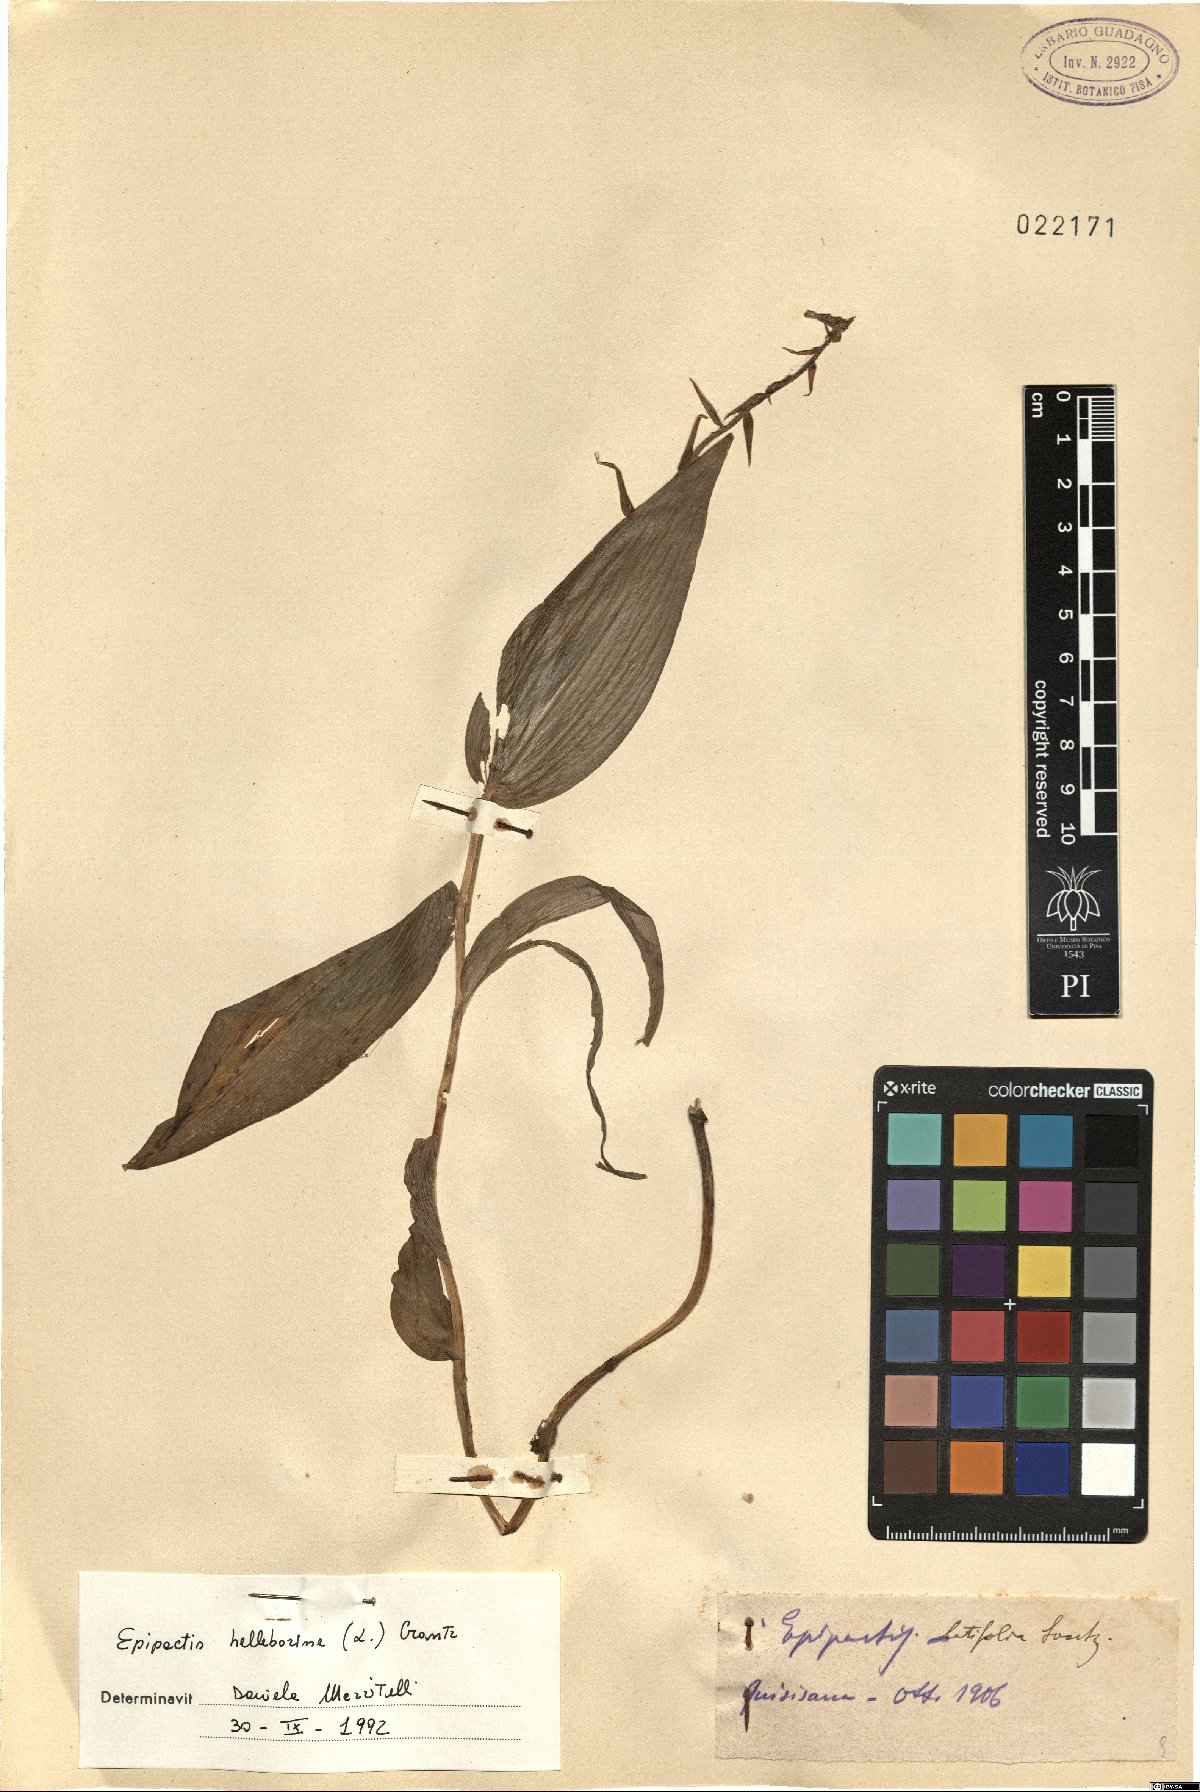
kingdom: Plantae
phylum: Tracheophyta
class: Liliopsida
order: Asparagales
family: Orchidaceae
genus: Epipactis
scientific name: Epipactis helleborine
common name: Broad-leaved helleborine
